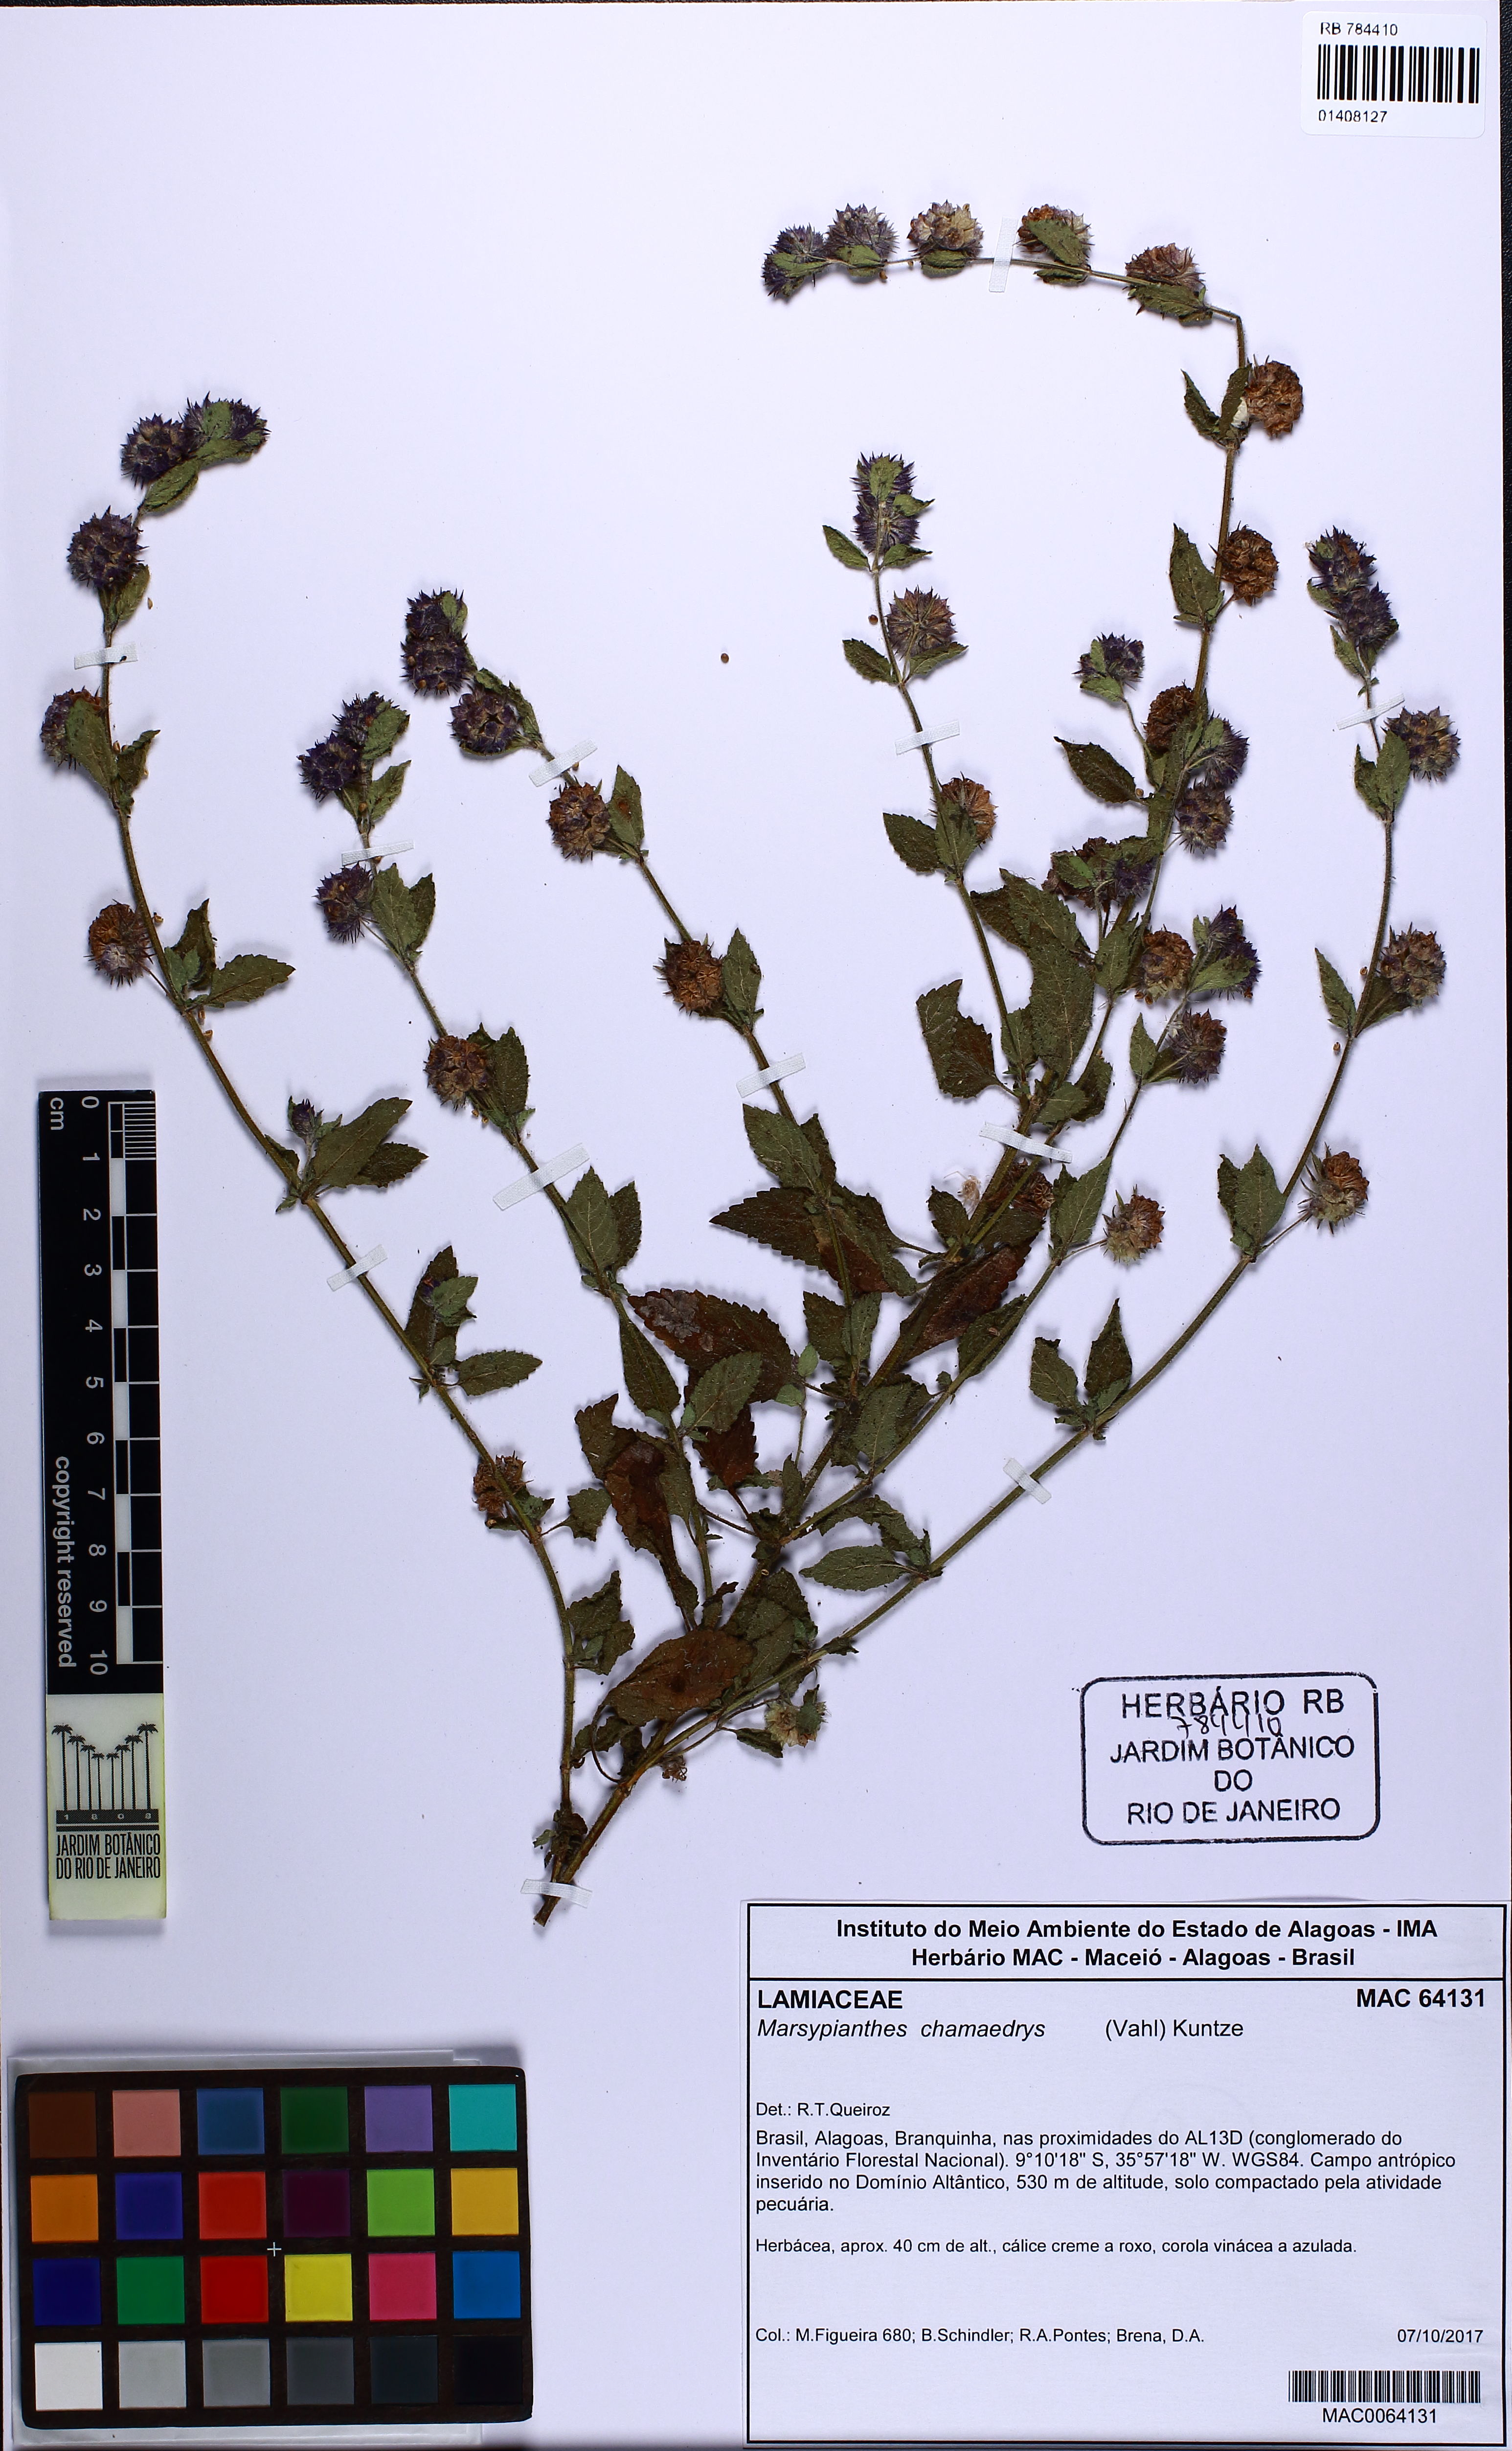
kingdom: Plantae
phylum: Tracheophyta
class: Magnoliopsida
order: Lamiales
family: Lamiaceae
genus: Marsypianthes
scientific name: Marsypianthes chamaedrys
